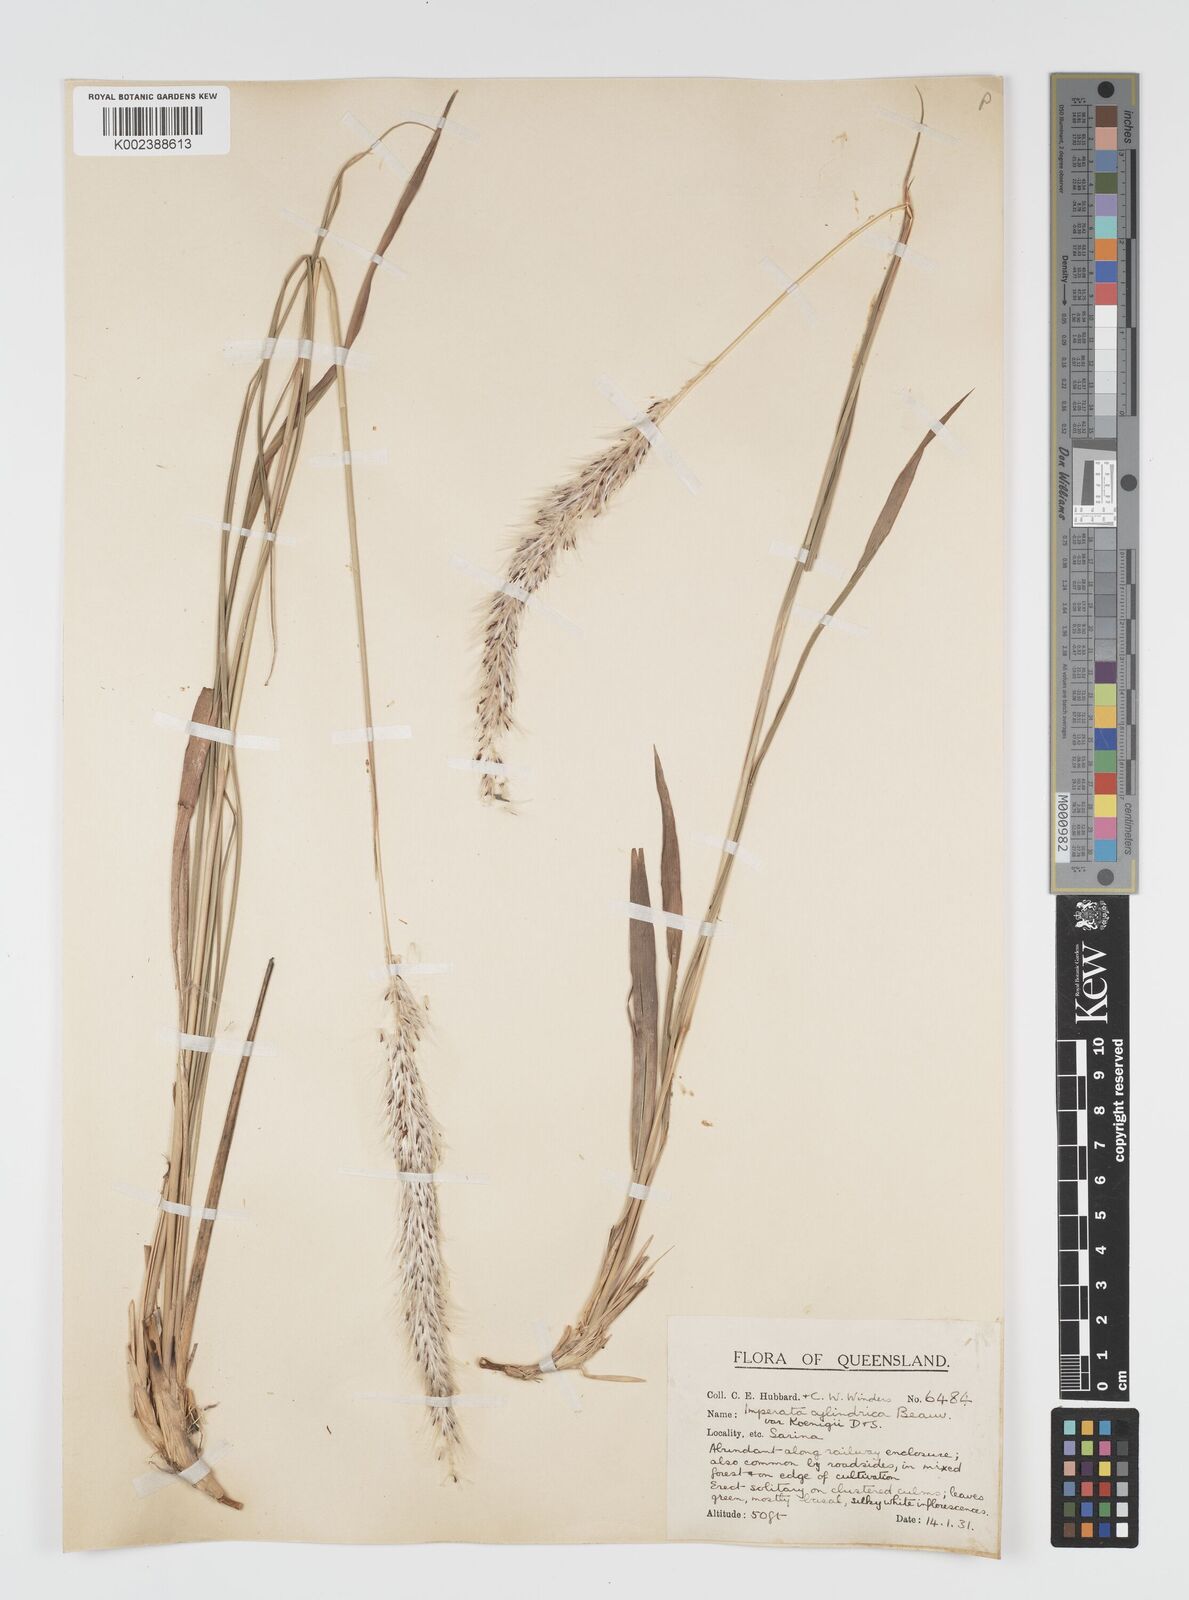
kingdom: Plantae
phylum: Tracheophyta
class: Liliopsida
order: Poales
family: Poaceae
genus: Imperata
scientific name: Imperata cylindrica
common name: Cogongrass
